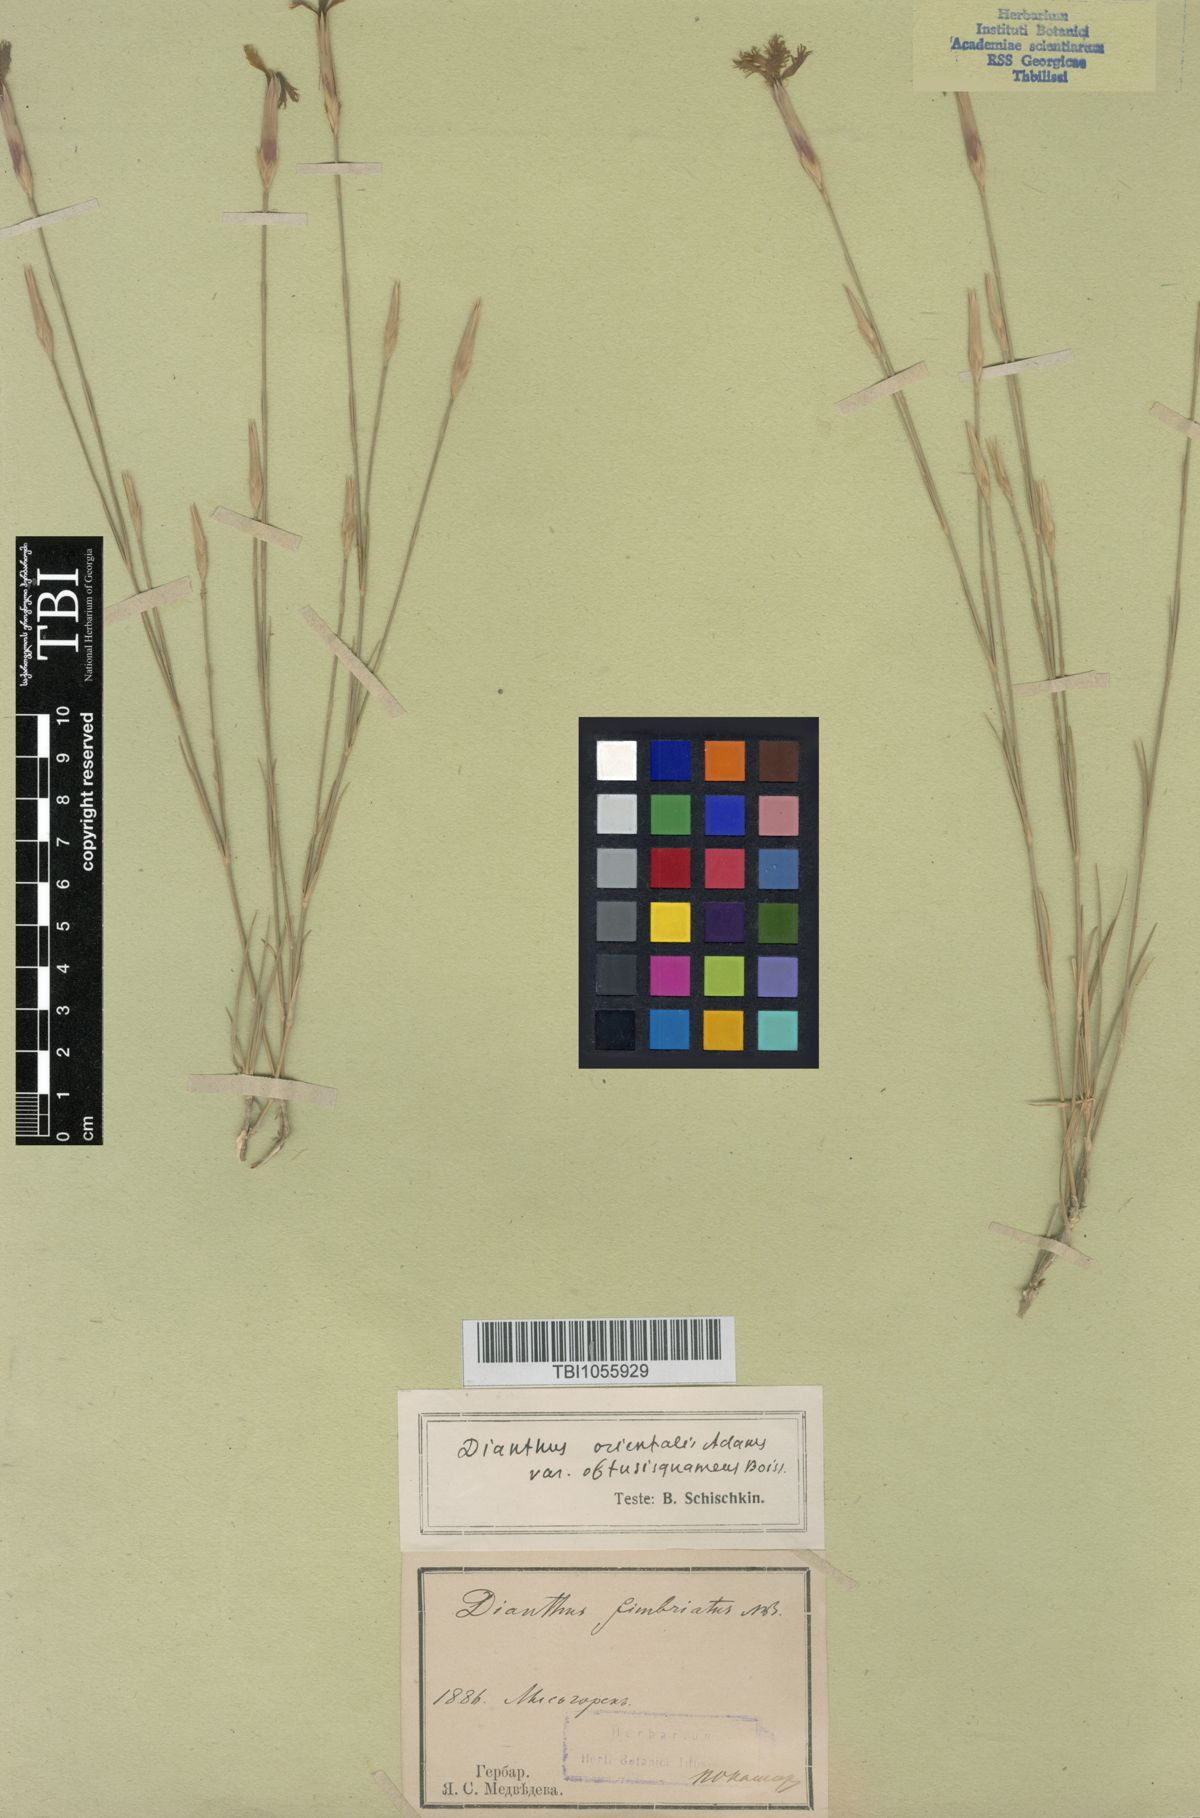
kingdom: Plantae
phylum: Tracheophyta
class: Magnoliopsida
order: Caryophyllales
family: Caryophyllaceae
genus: Dianthus
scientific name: Dianthus orientalis
